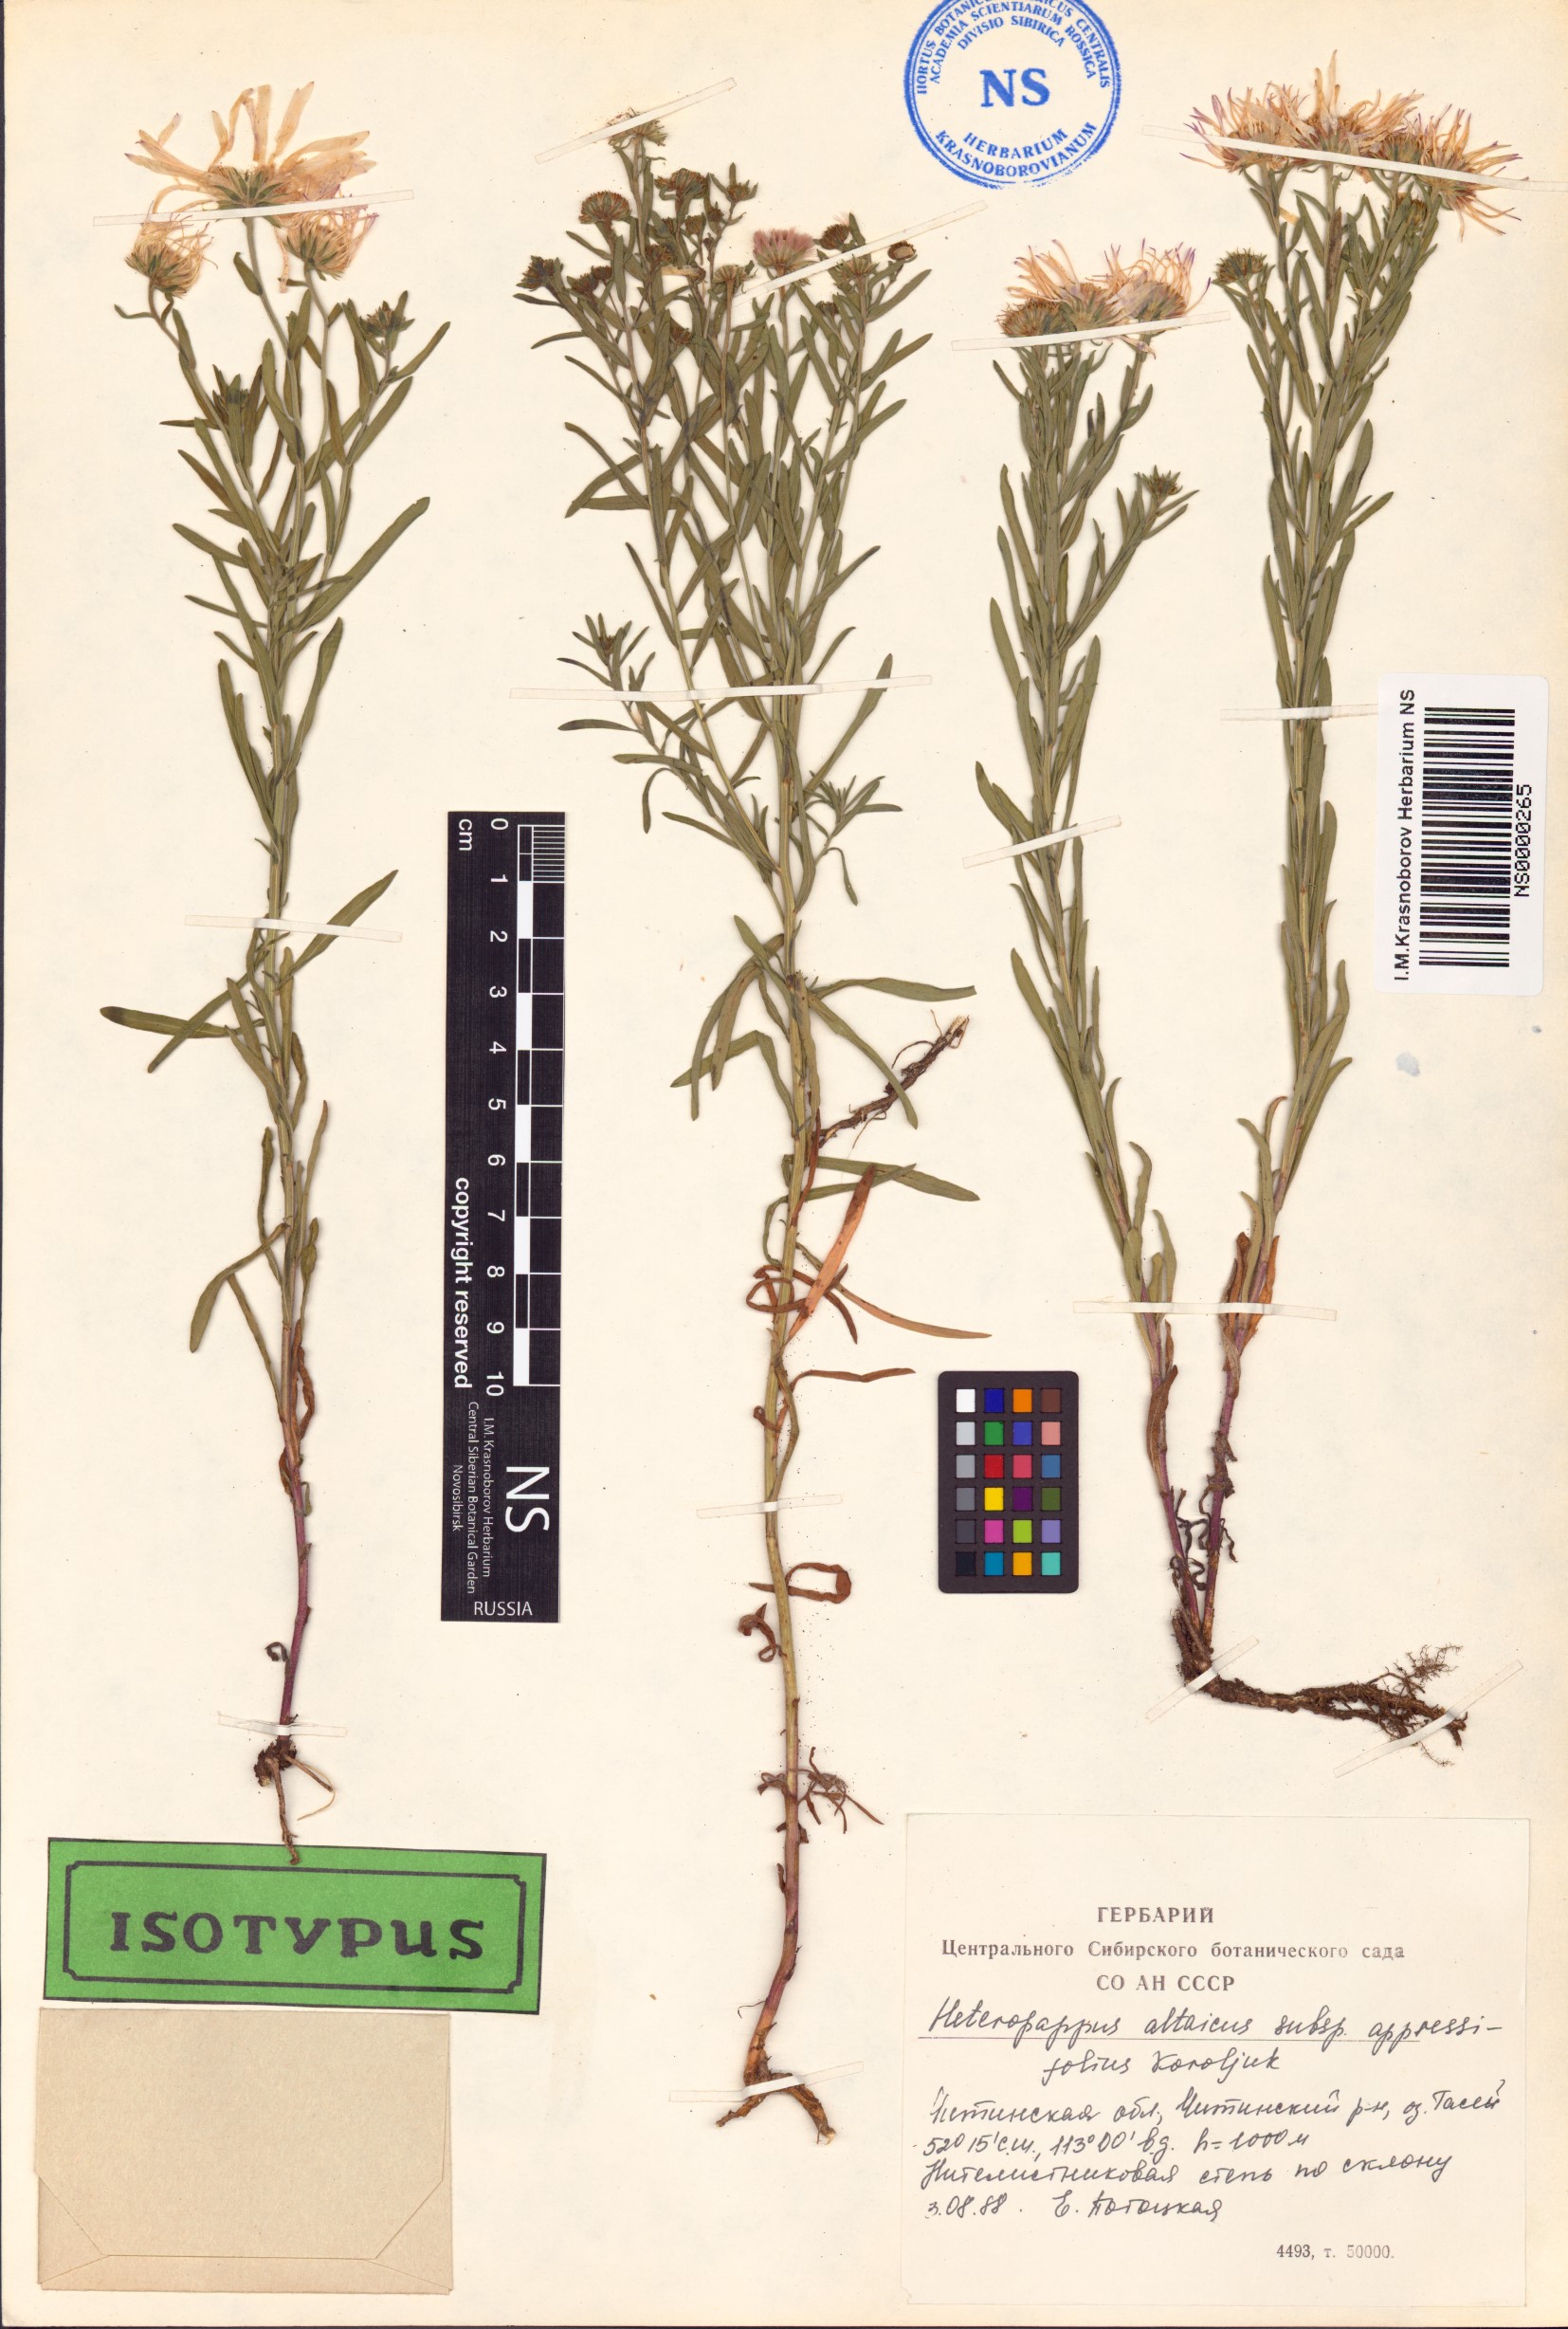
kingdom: Plantae
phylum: Tracheophyta
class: Magnoliopsida
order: Asterales
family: Asteraceae
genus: Heteropappus
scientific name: Heteropappus altaicus
